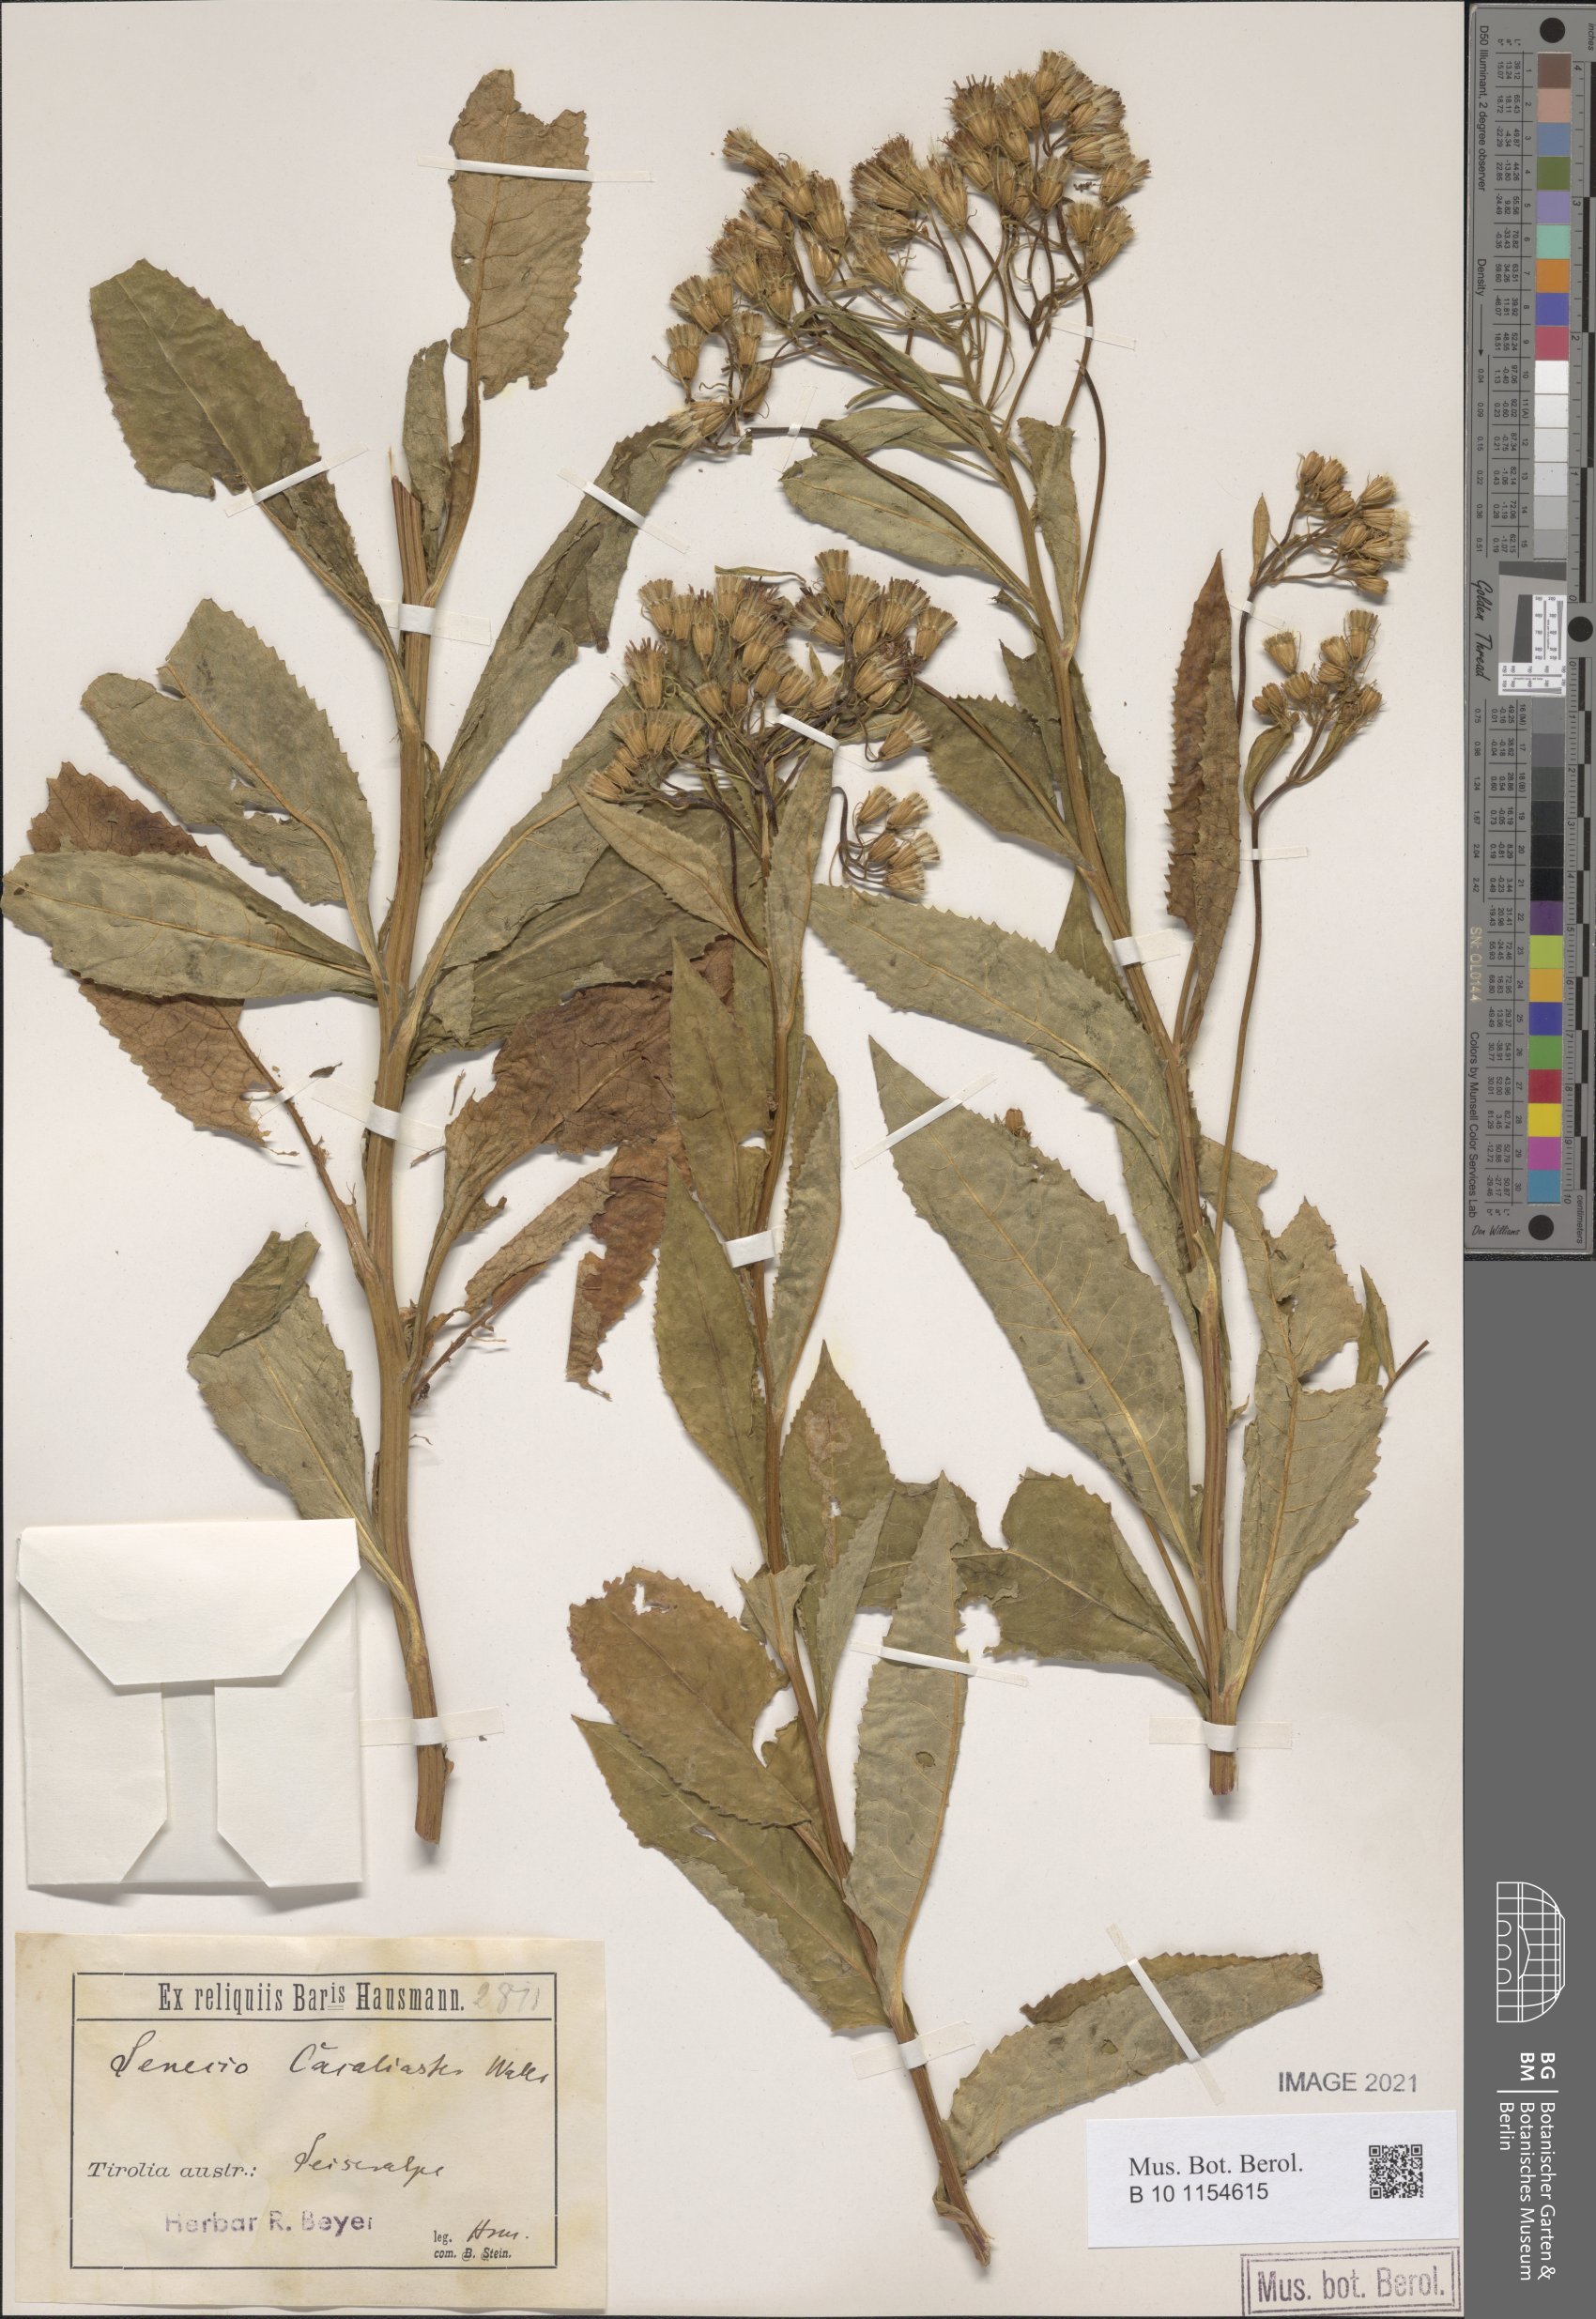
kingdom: Plantae
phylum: Tracheophyta
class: Magnoliopsida
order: Asterales
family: Asteraceae
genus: Senecio
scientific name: Senecio cacaliaster
